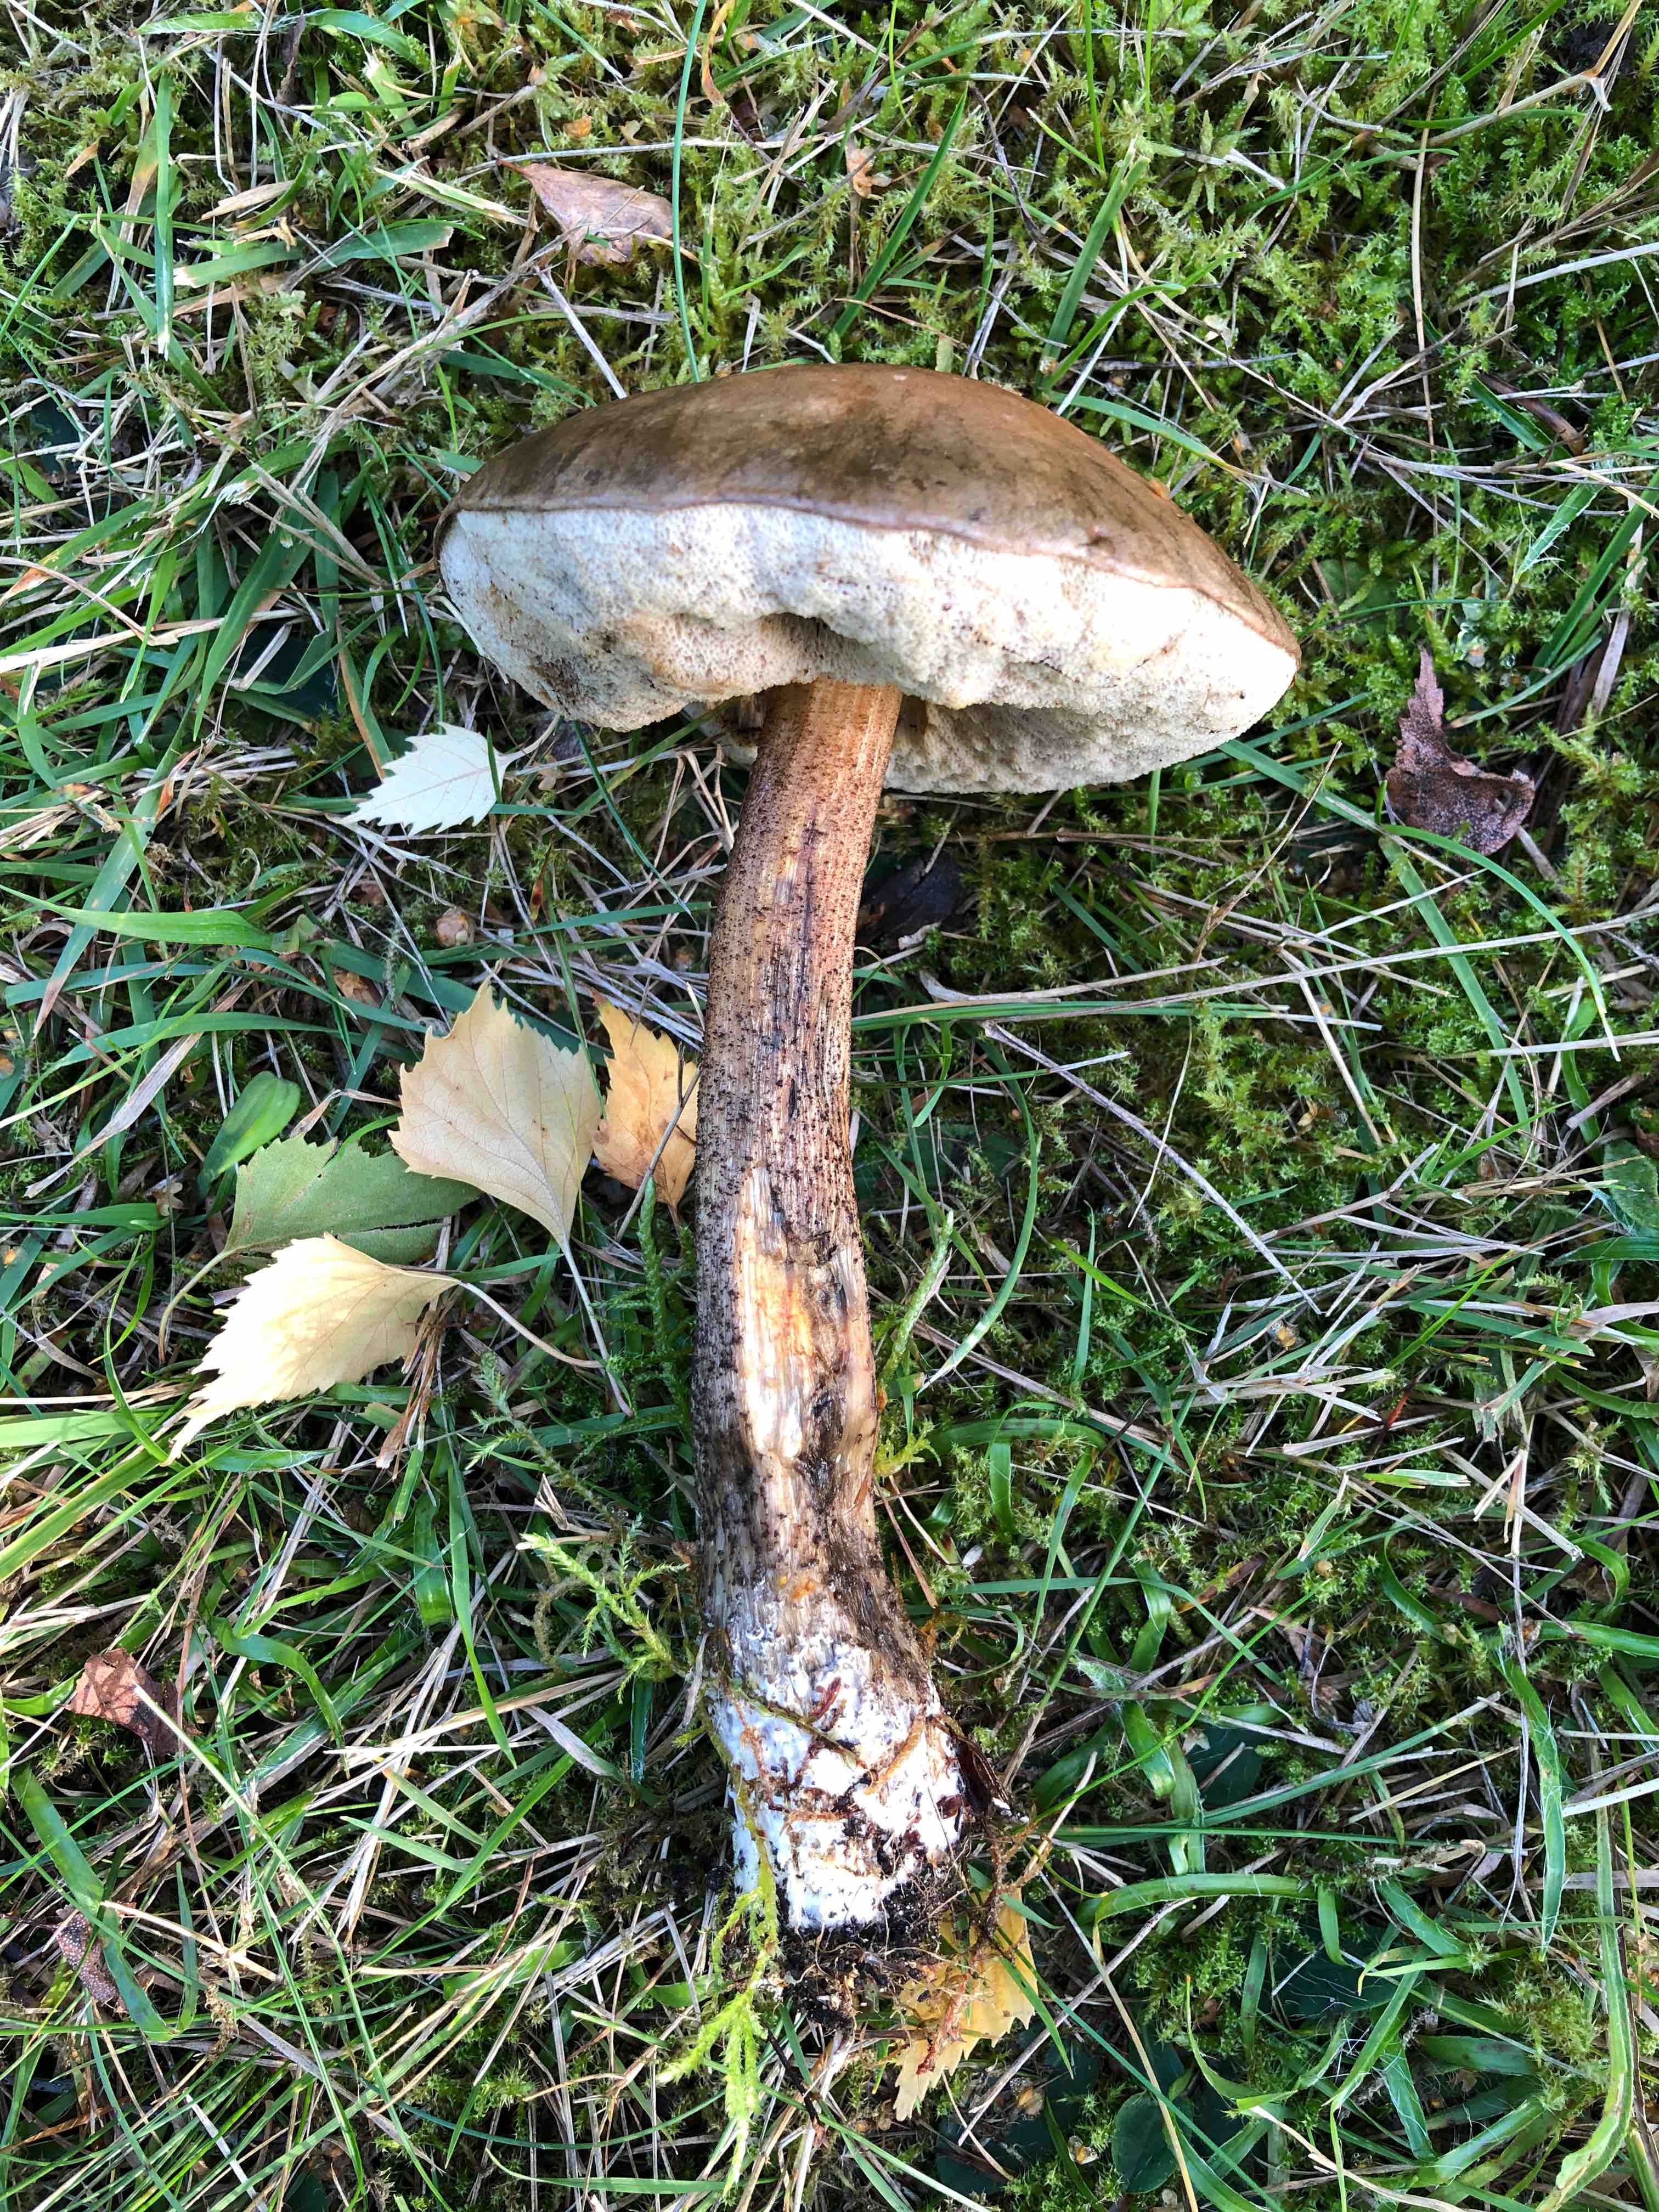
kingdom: Fungi
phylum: Basidiomycota
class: Agaricomycetes
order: Boletales
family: Boletaceae
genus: Leccinum
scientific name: Leccinum scabrum
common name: brun skælrørhat
